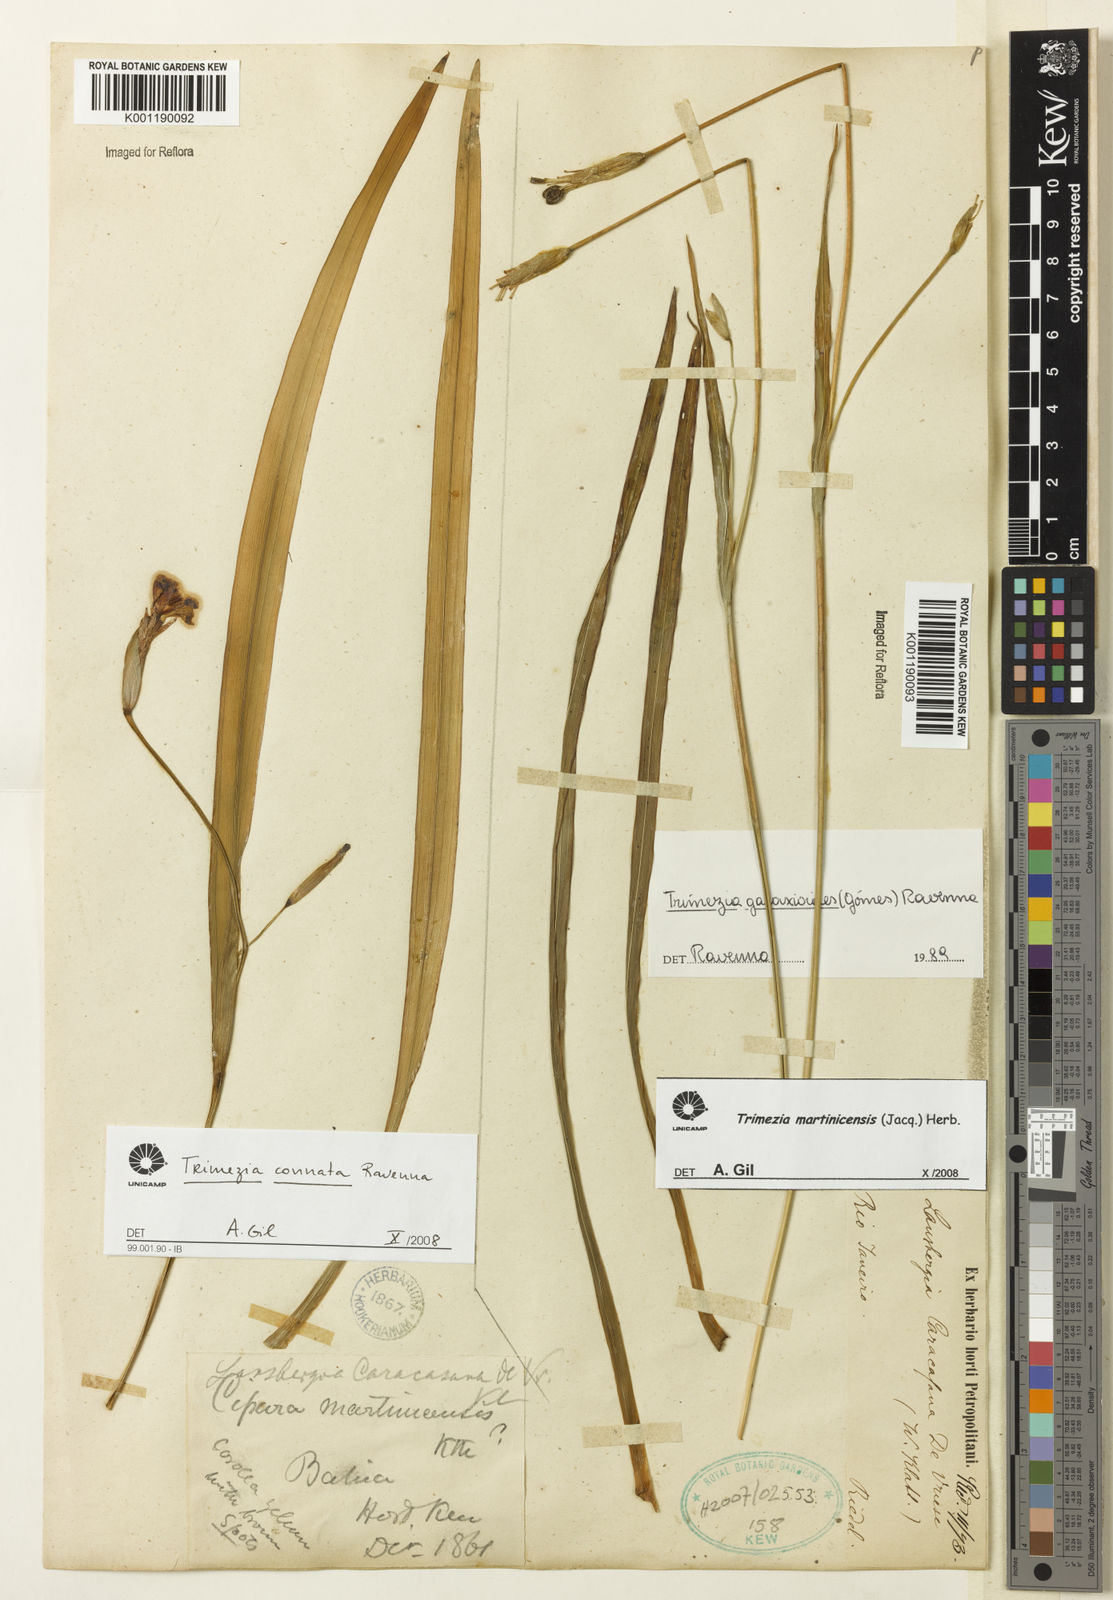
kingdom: Plantae
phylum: Tracheophyta
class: Liliopsida
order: Asparagales
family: Iridaceae
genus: Trimezia
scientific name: Trimezia martinicensis
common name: Martinique trimezia
